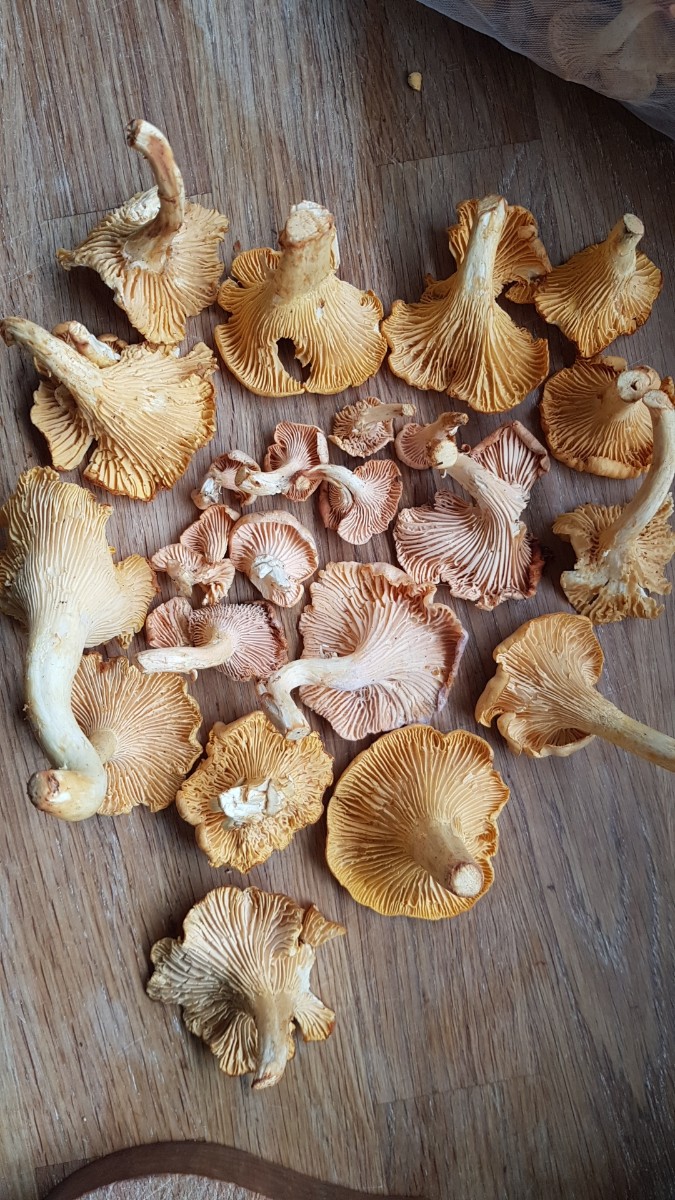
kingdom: Fungi
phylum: Basidiomycota
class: Agaricomycetes
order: Cantharellales
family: Hydnaceae
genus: Cantharellus
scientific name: Cantharellus
